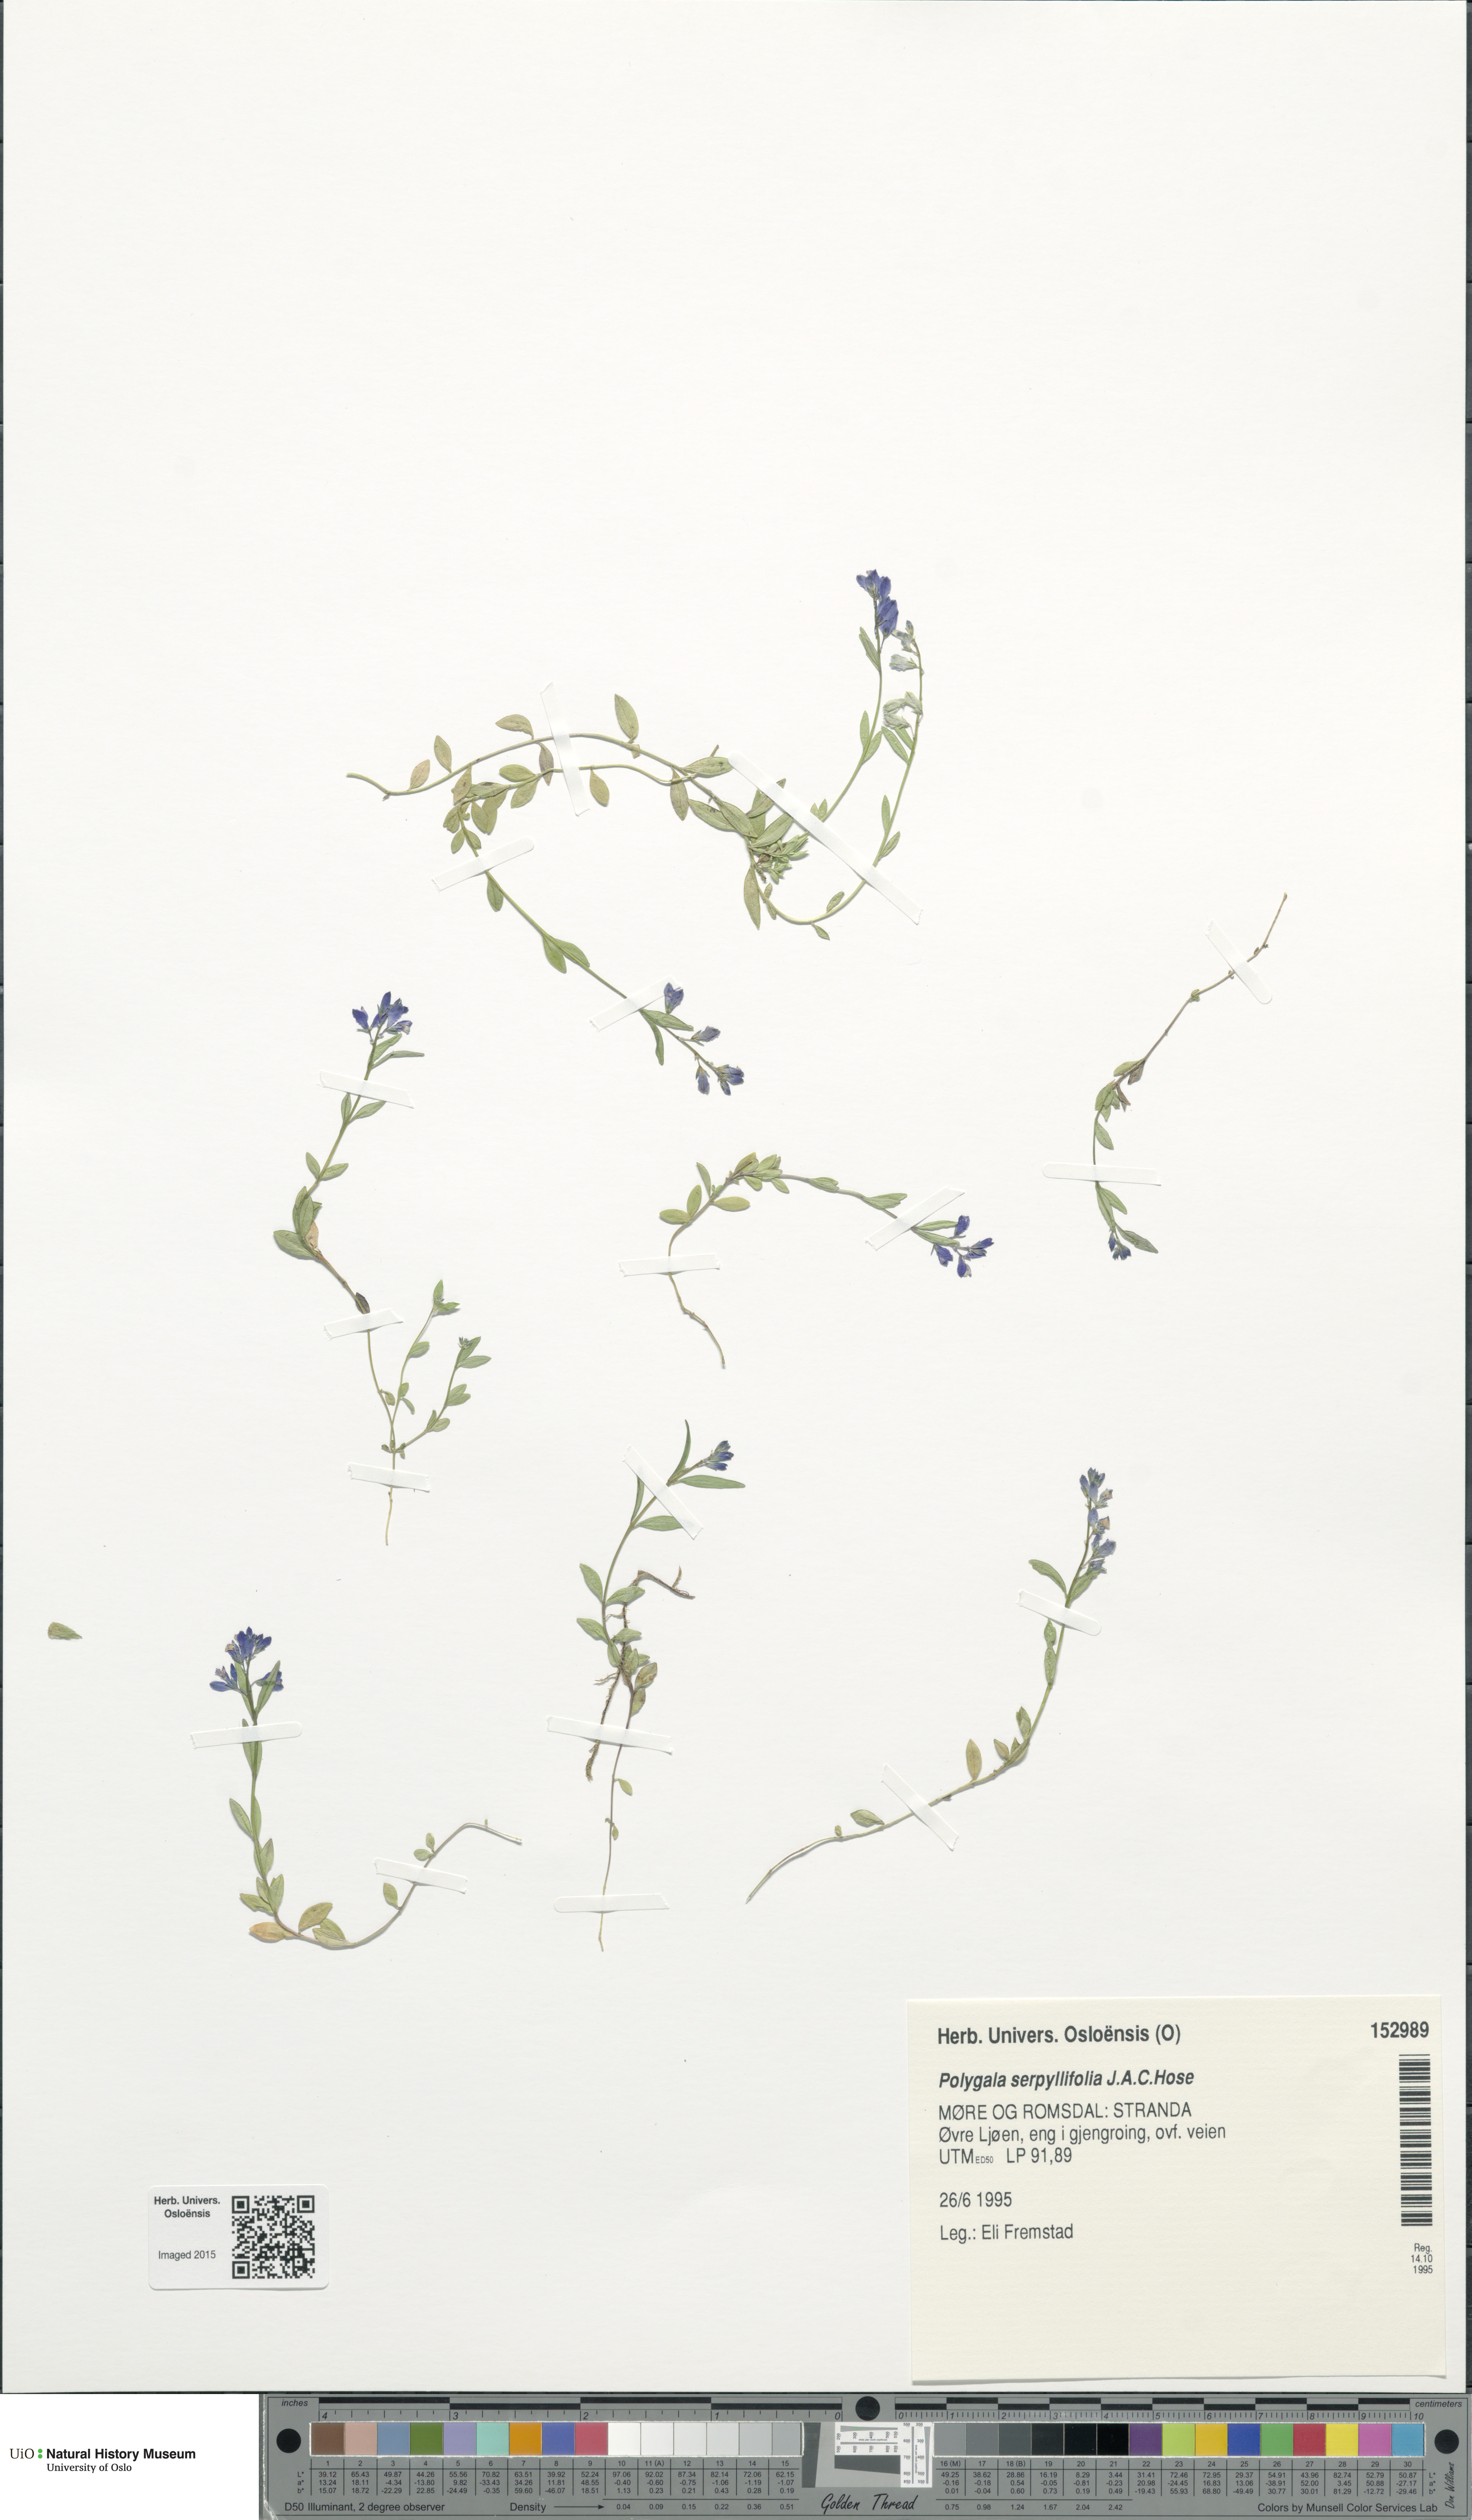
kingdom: Plantae
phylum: Tracheophyta
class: Magnoliopsida
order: Fabales
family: Polygalaceae
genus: Polygala
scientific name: Polygala serpyllifolia
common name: Heath milkwort
